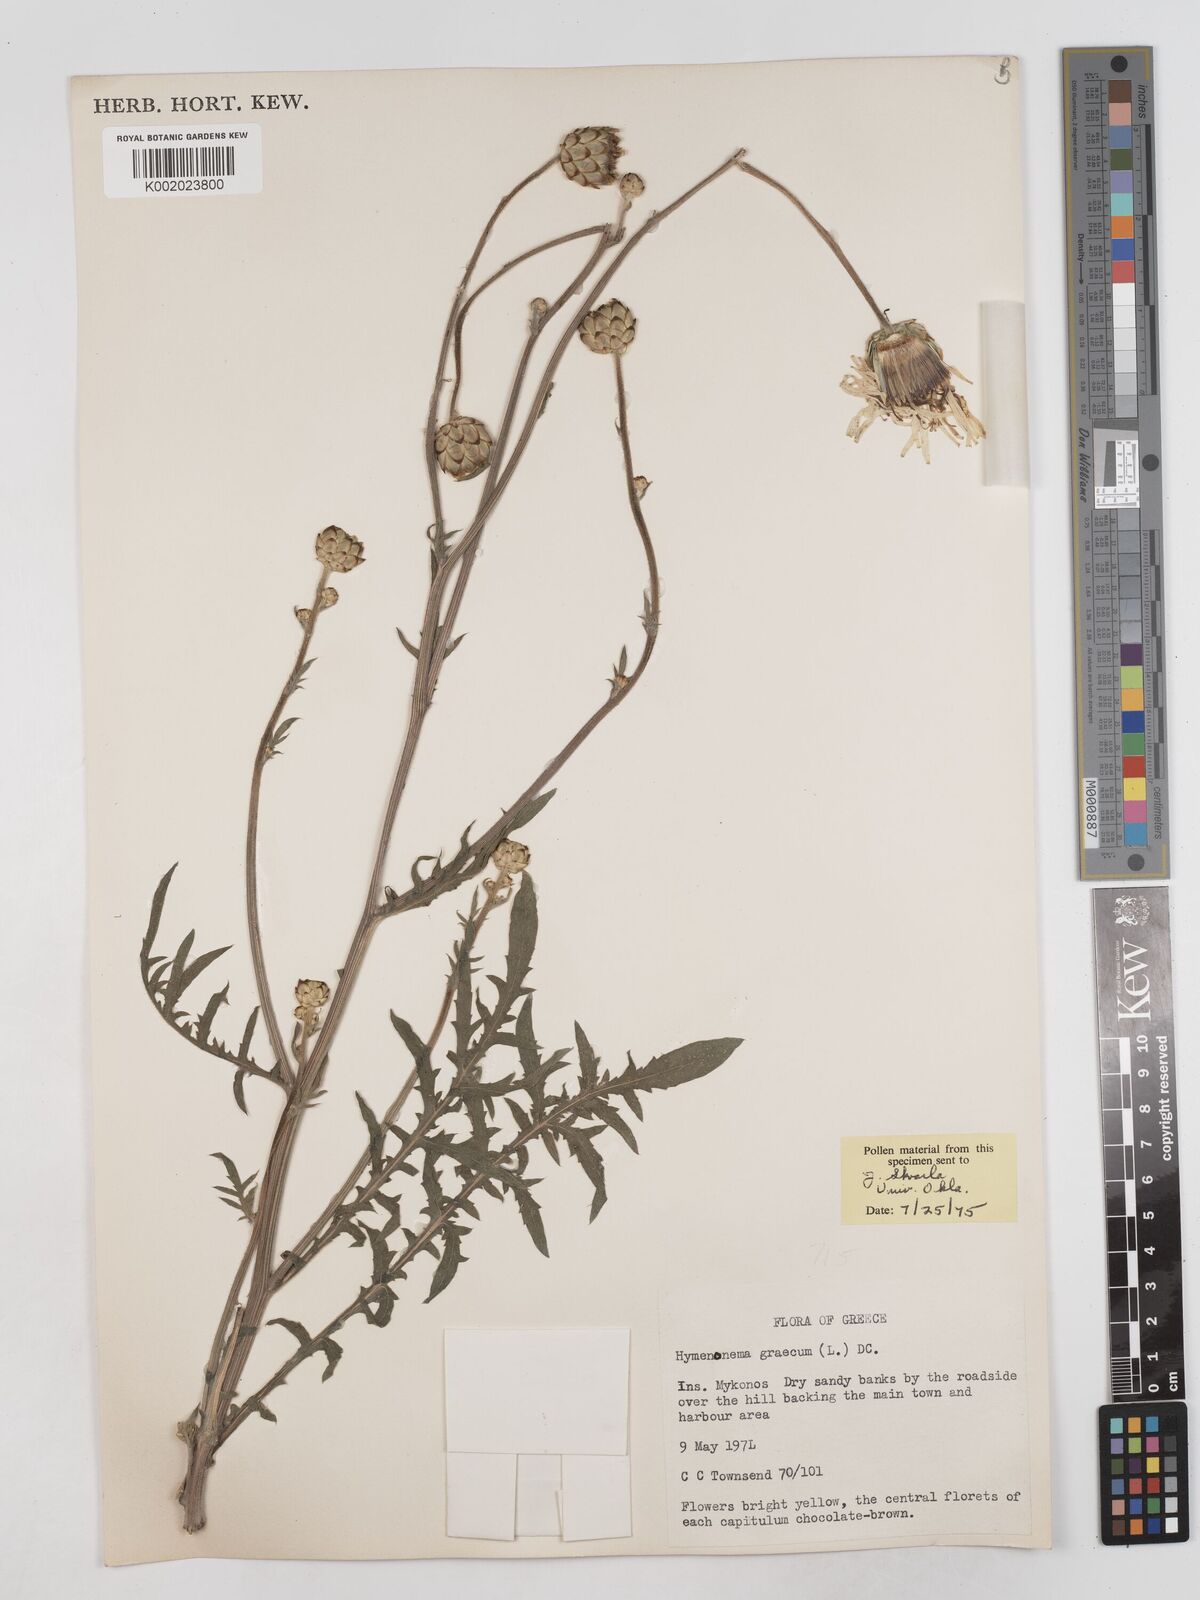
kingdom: Plantae
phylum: Tracheophyta
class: Magnoliopsida
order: Asterales
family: Asteraceae
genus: Hymenonema
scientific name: Hymenonema graecum
